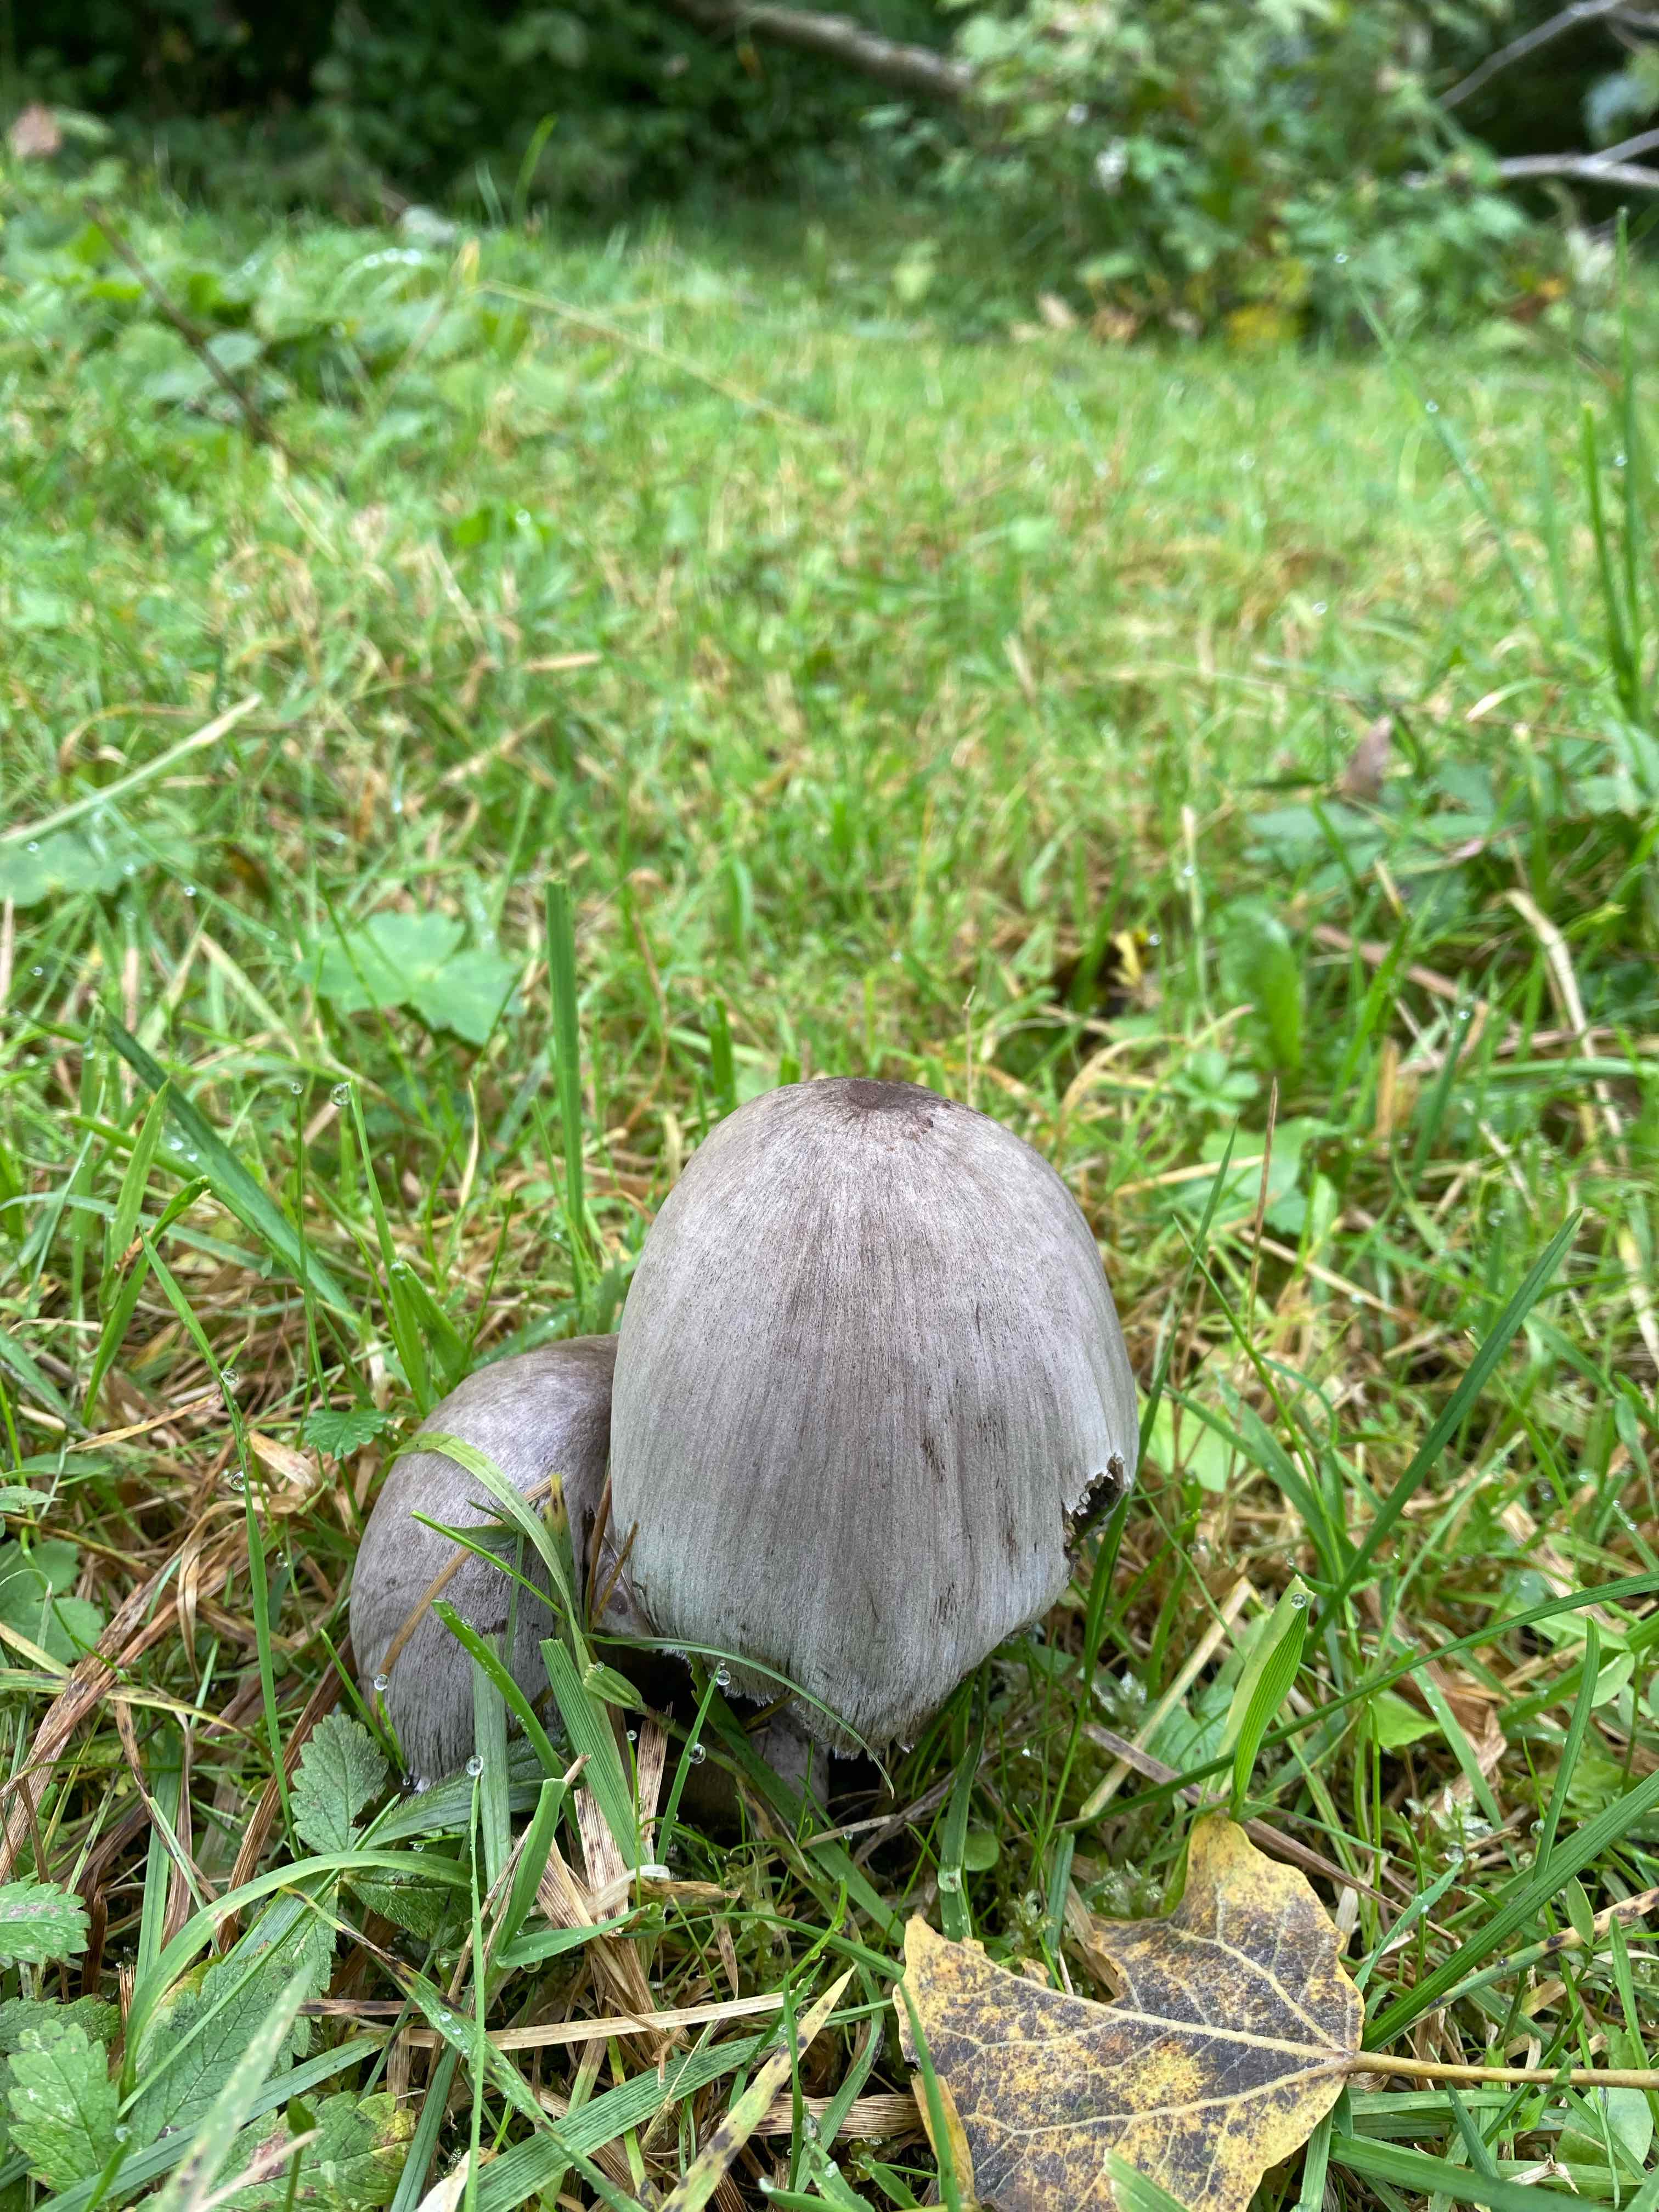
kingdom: Fungi
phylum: Basidiomycota
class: Agaricomycetes
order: Agaricales
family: Psathyrellaceae
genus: Coprinopsis
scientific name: Coprinopsis atramentaria
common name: almindelig blækhat
